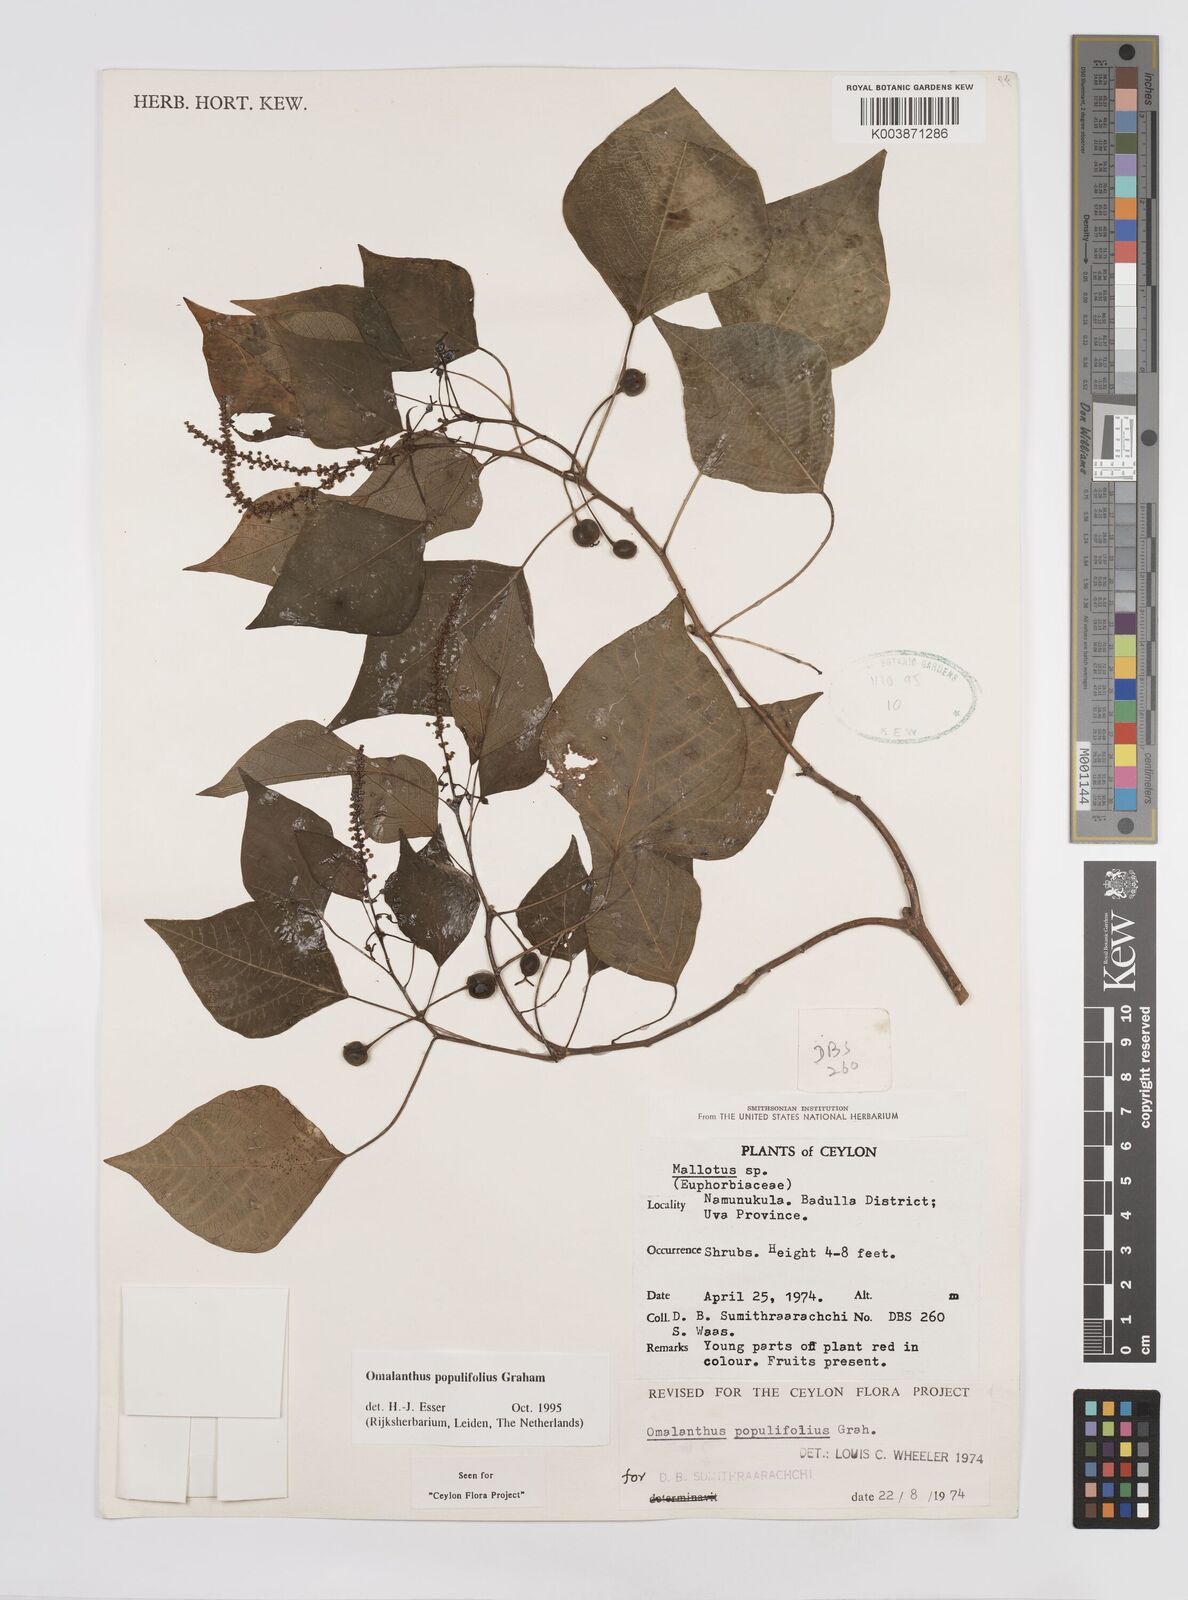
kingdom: Plantae
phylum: Tracheophyta
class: Magnoliopsida
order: Malpighiales
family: Euphorbiaceae
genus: Homalanthus
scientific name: Homalanthus populneus
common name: Spurge
